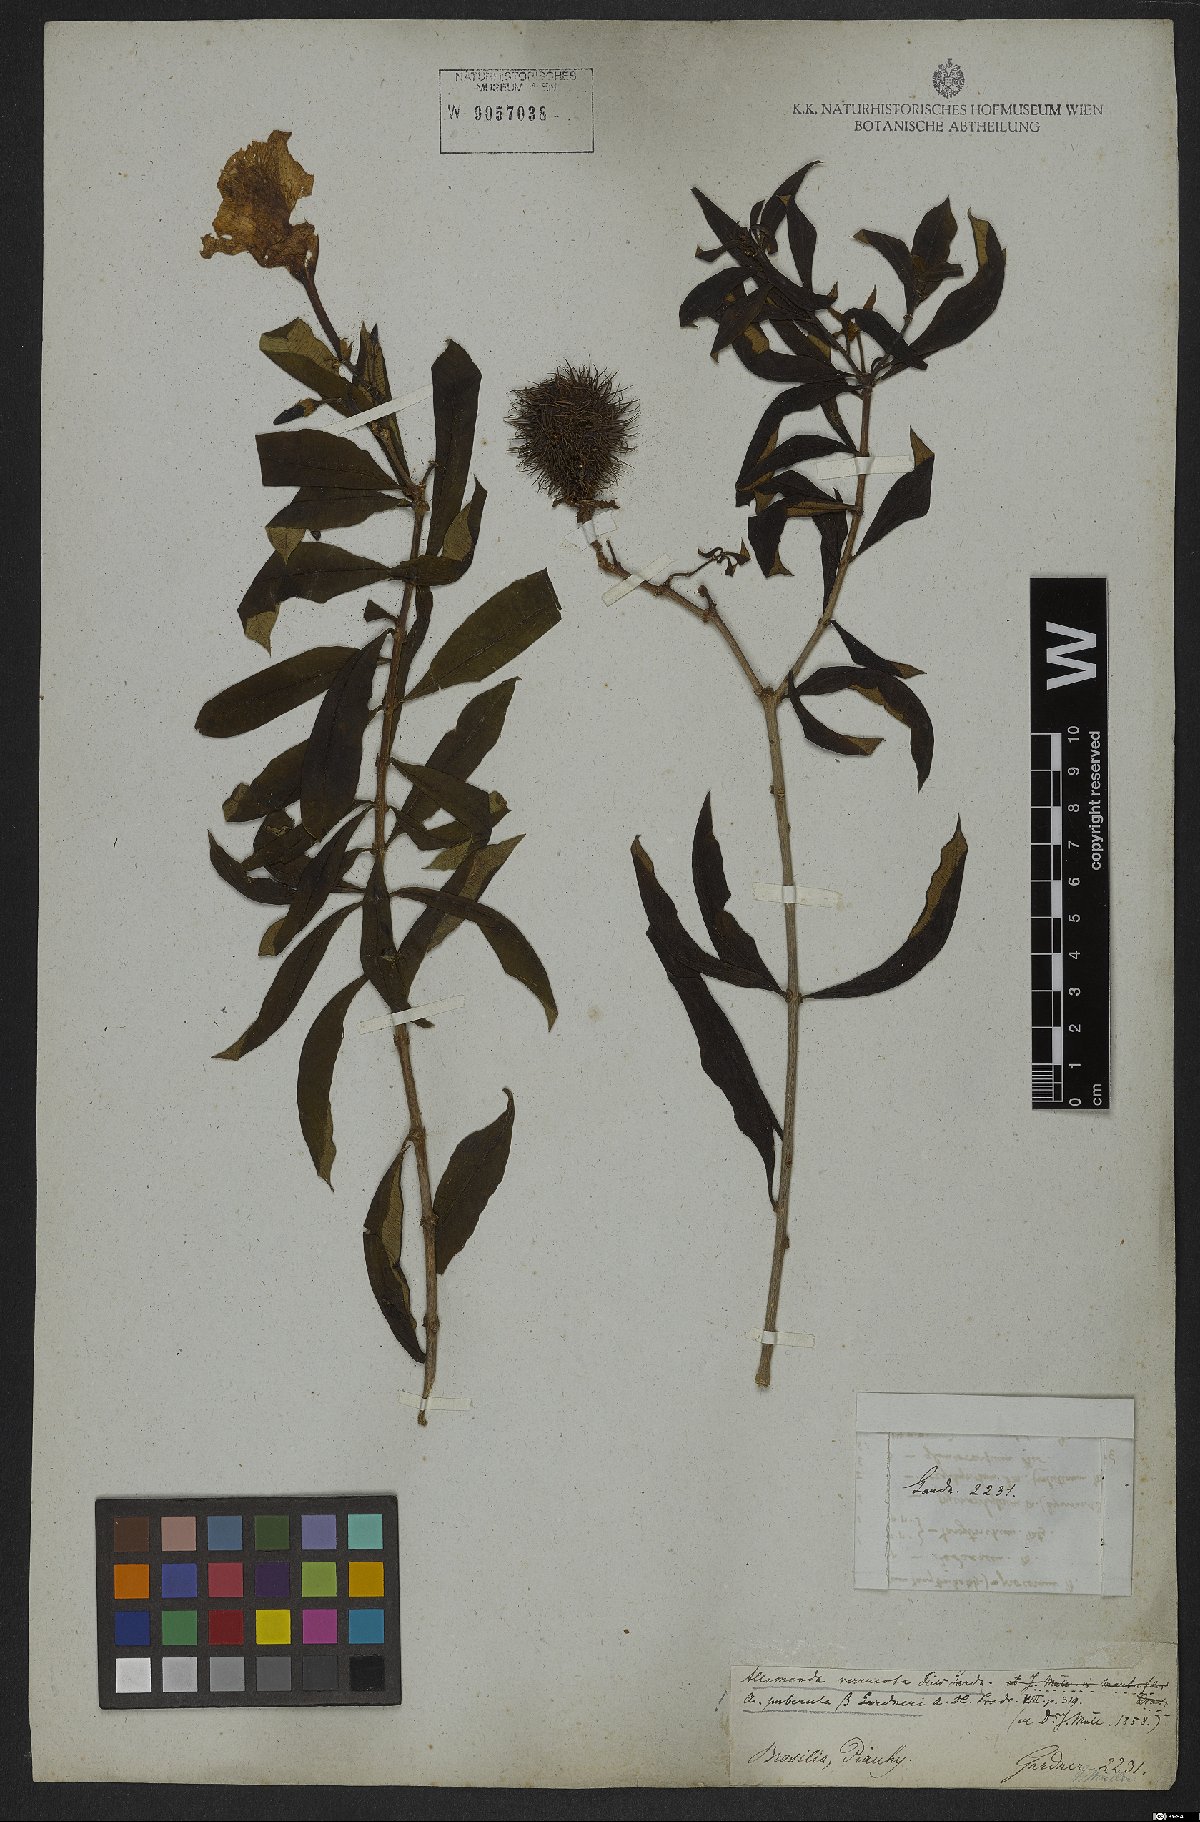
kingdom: Plantae
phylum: Tracheophyta
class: Magnoliopsida
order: Gentianales
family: Apocynaceae
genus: Allamanda
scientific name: Allamanda puberula
